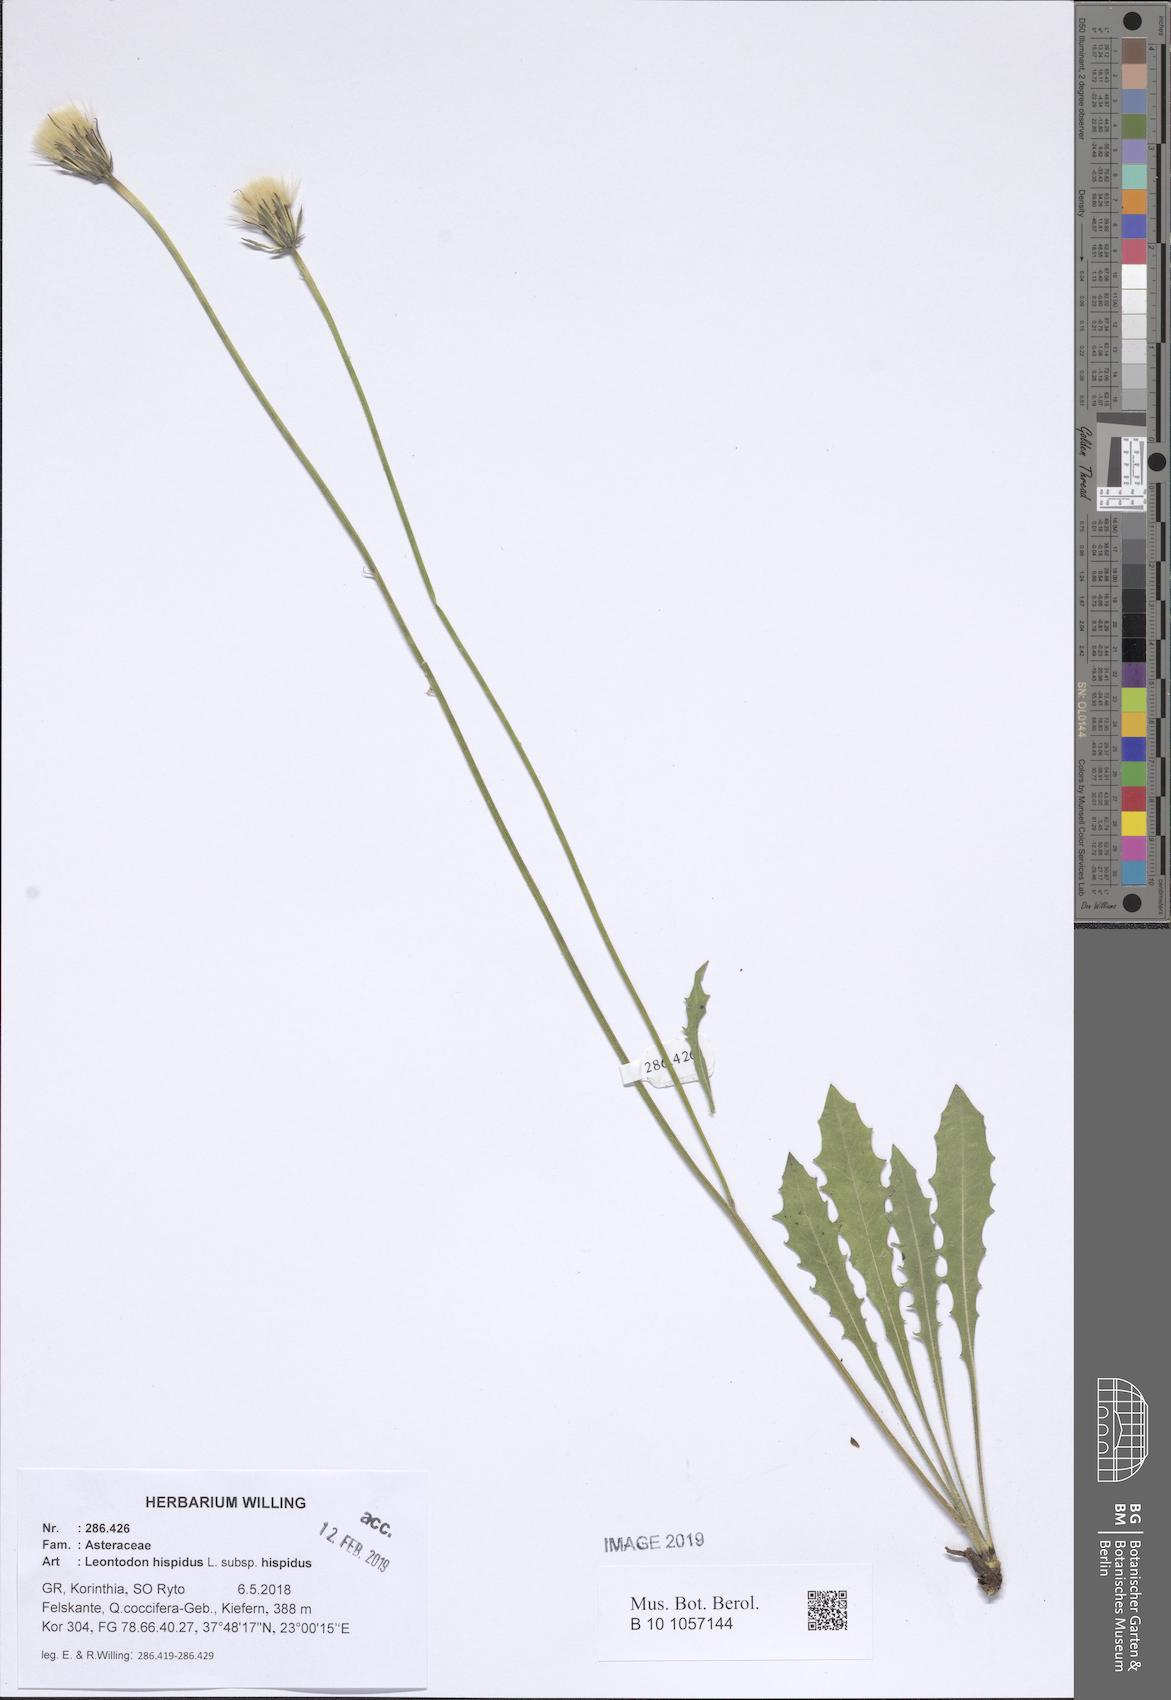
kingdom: Plantae
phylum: Tracheophyta
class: Magnoliopsida
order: Asterales
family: Asteraceae
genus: Leontodon
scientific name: Leontodon hispidus
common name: Rough hawkbit
